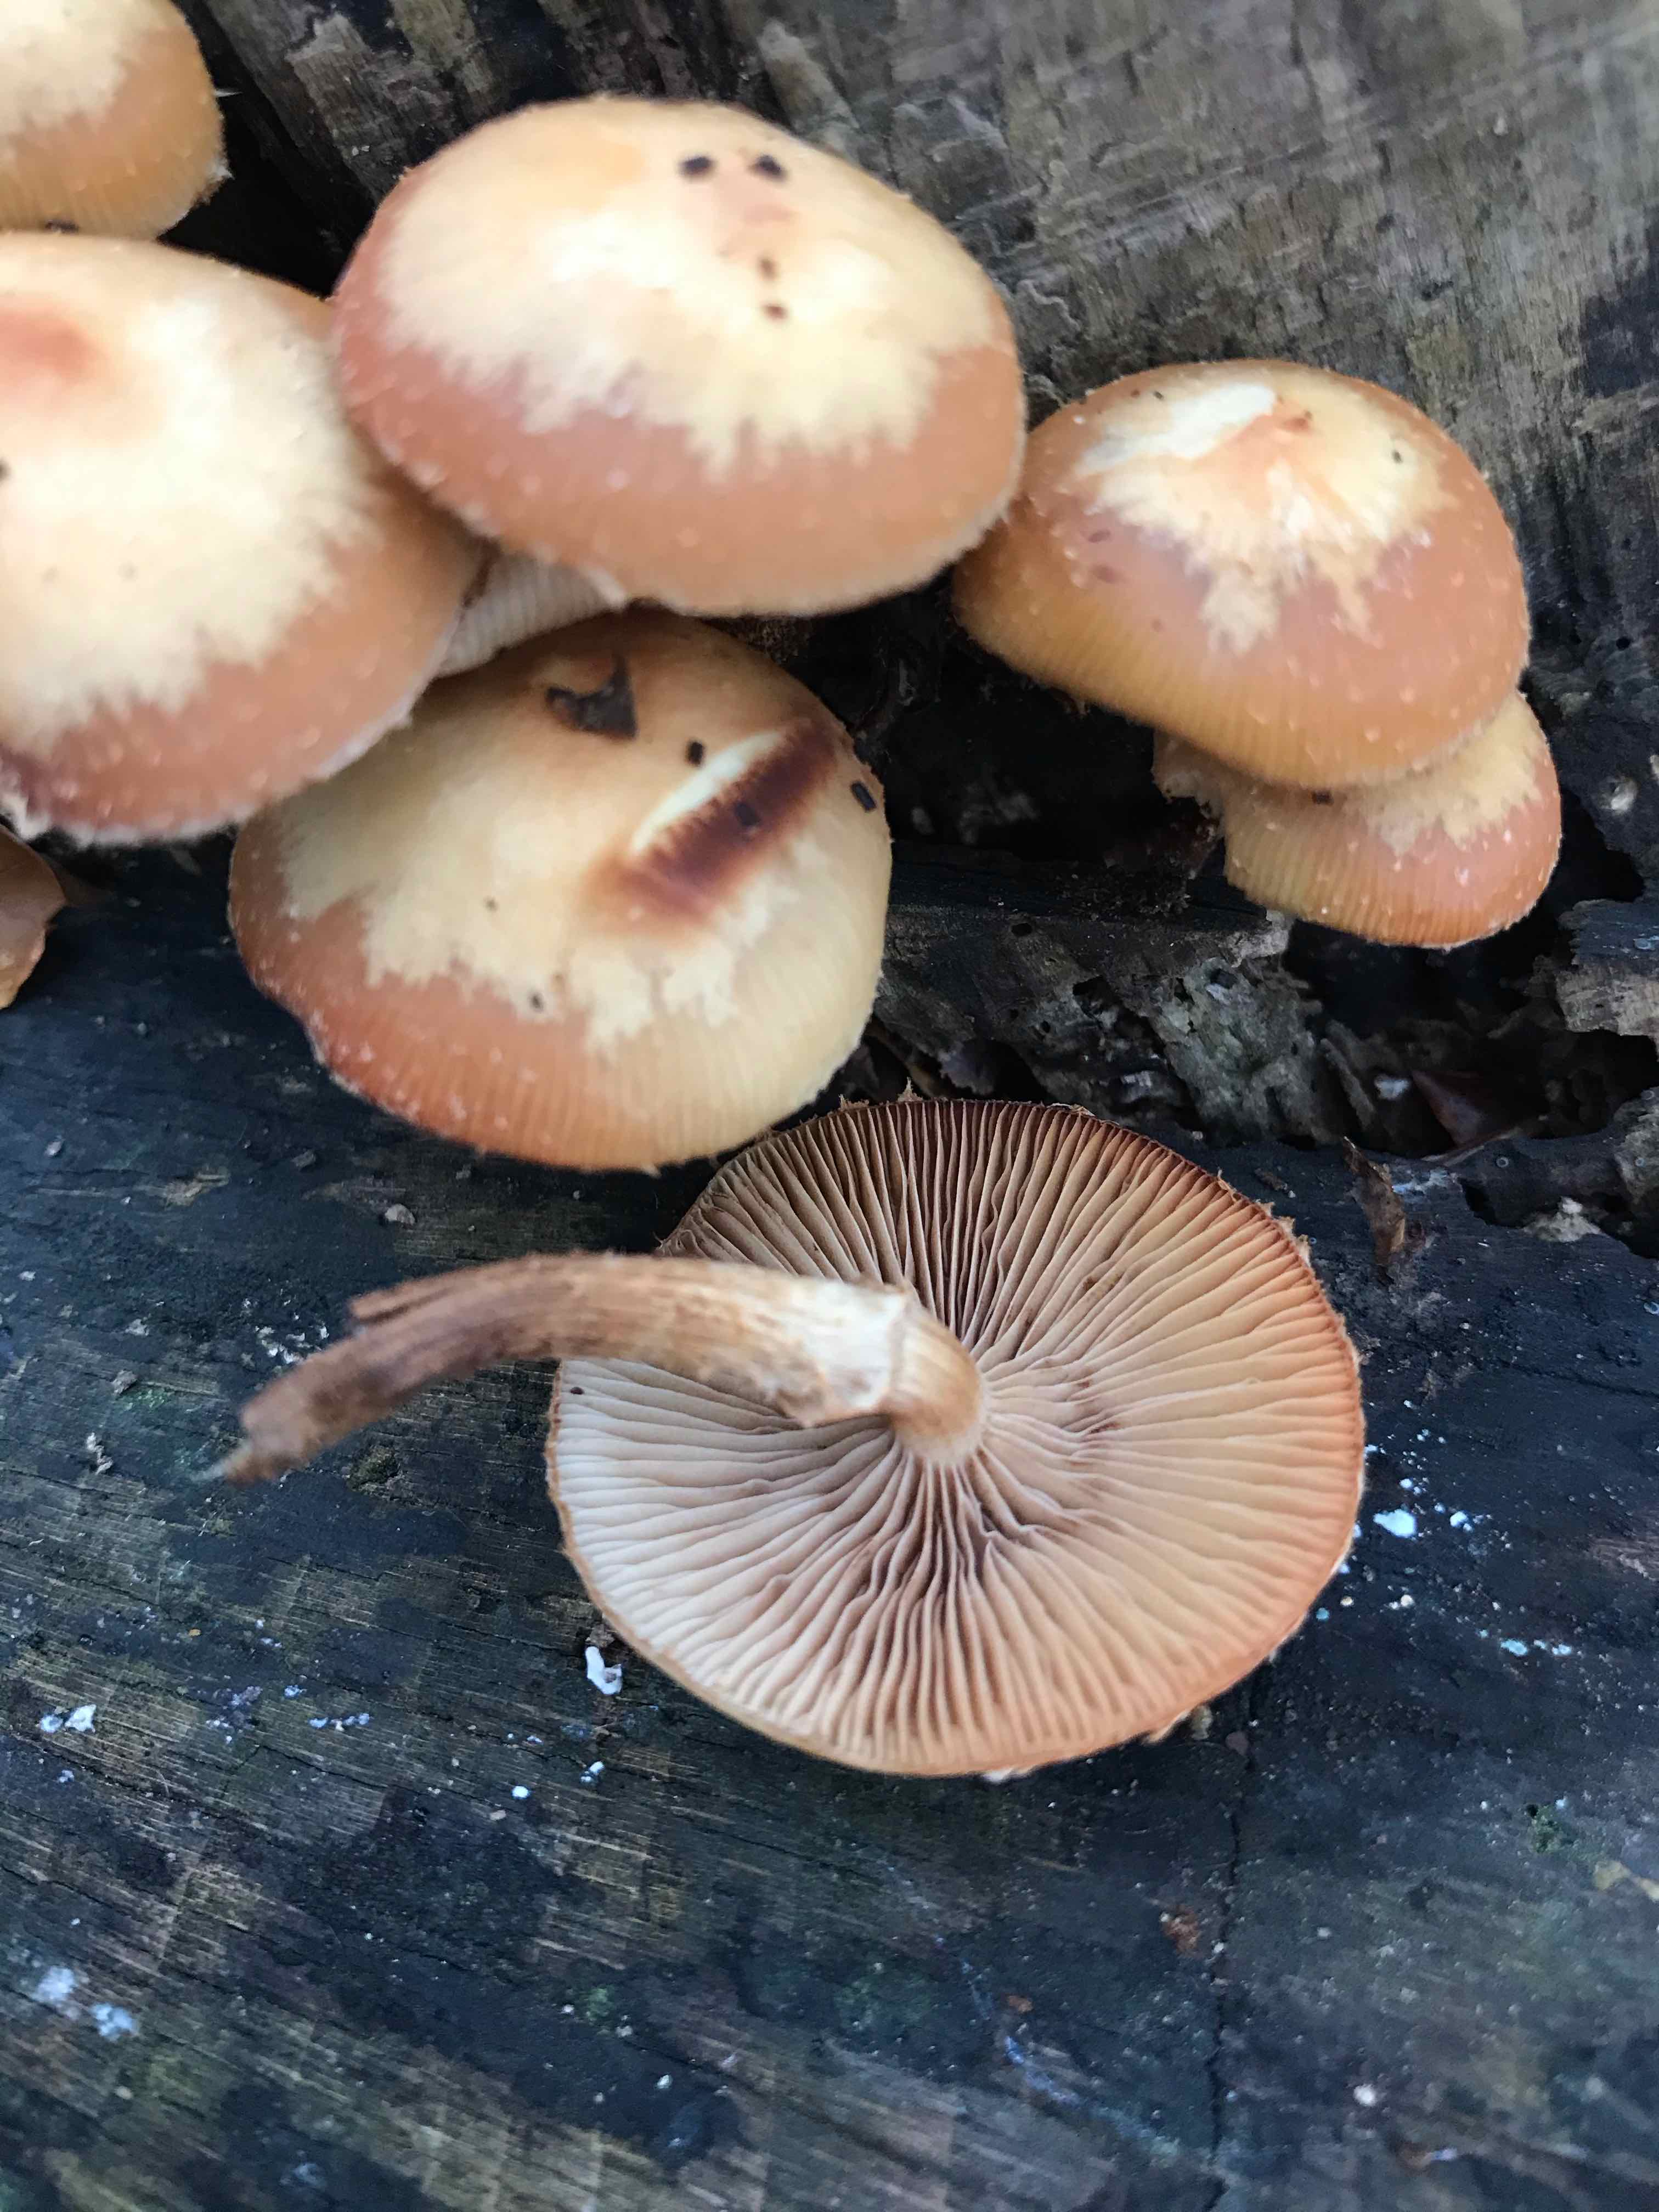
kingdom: Fungi
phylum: Basidiomycota
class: Agaricomycetes
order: Agaricales
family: Strophariaceae
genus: Kuehneromyces
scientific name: Kuehneromyces mutabilis
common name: foranderlig skælhat
